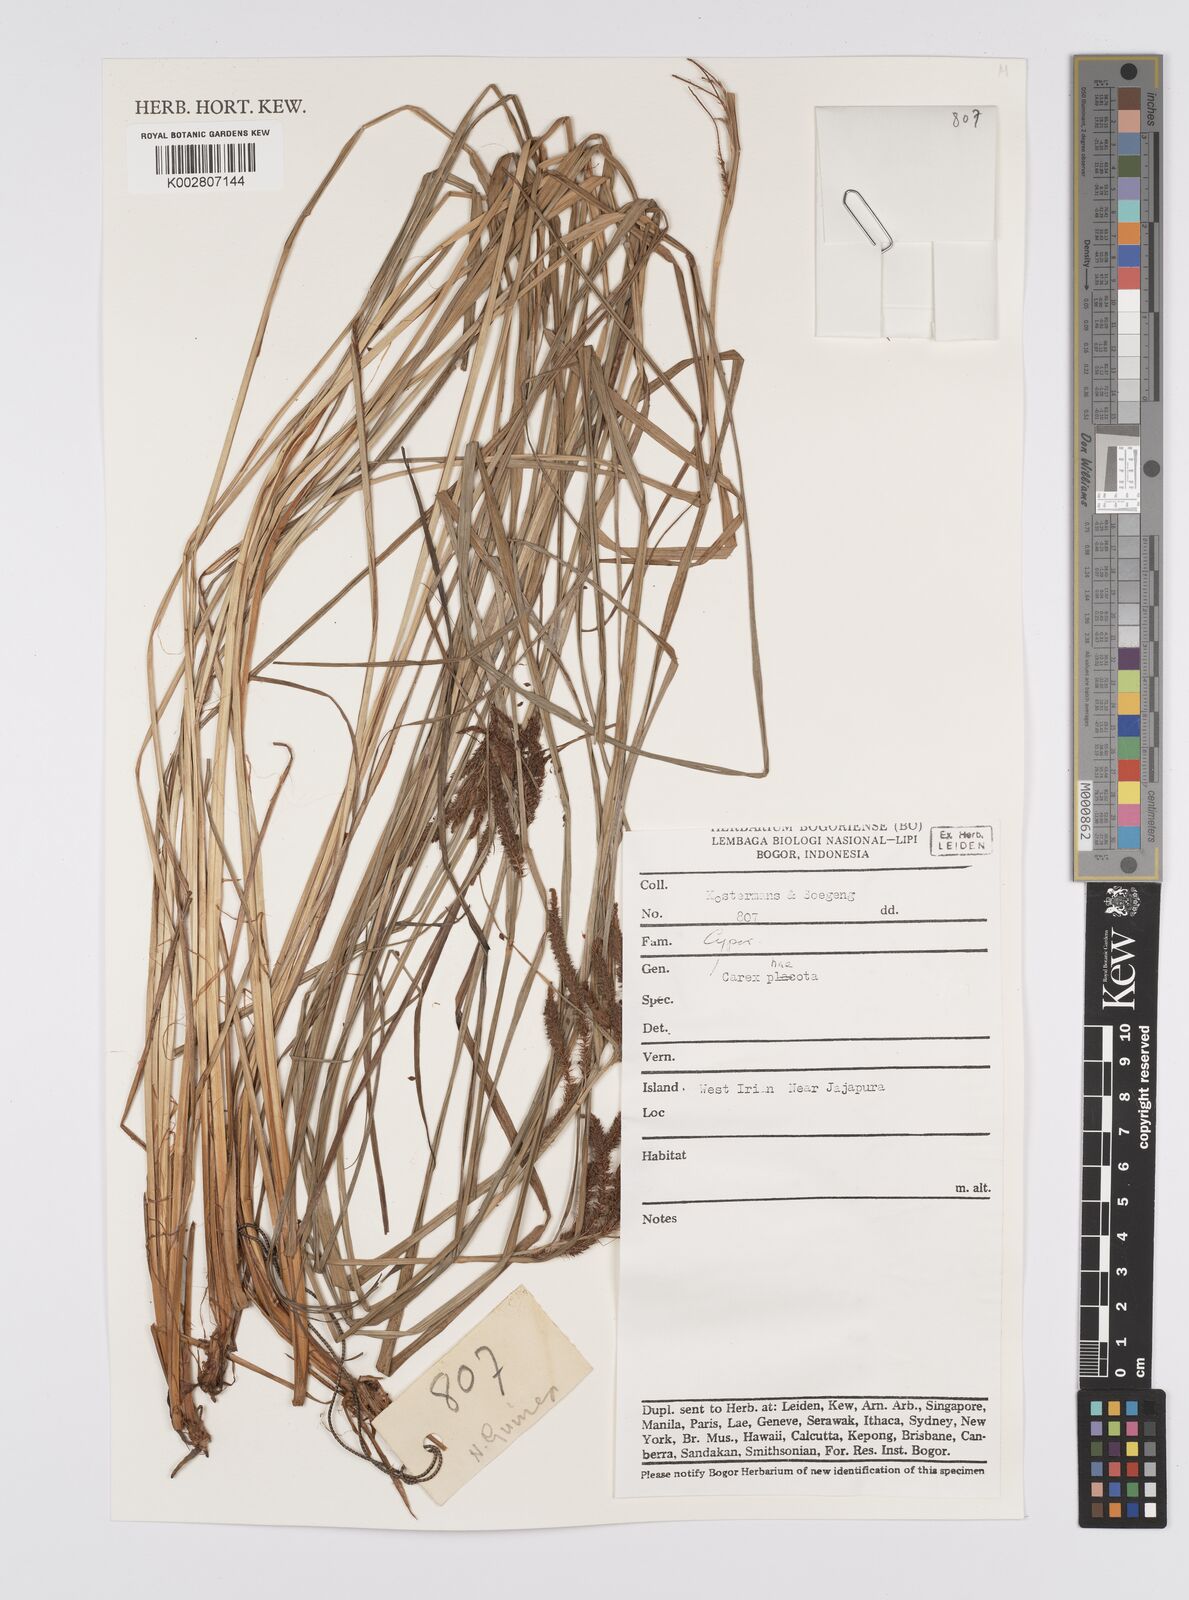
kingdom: Plantae
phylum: Tracheophyta
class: Liliopsida
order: Poales
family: Cyperaceae
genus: Carex
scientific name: Carex phacota
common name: Lakeshore sedge
